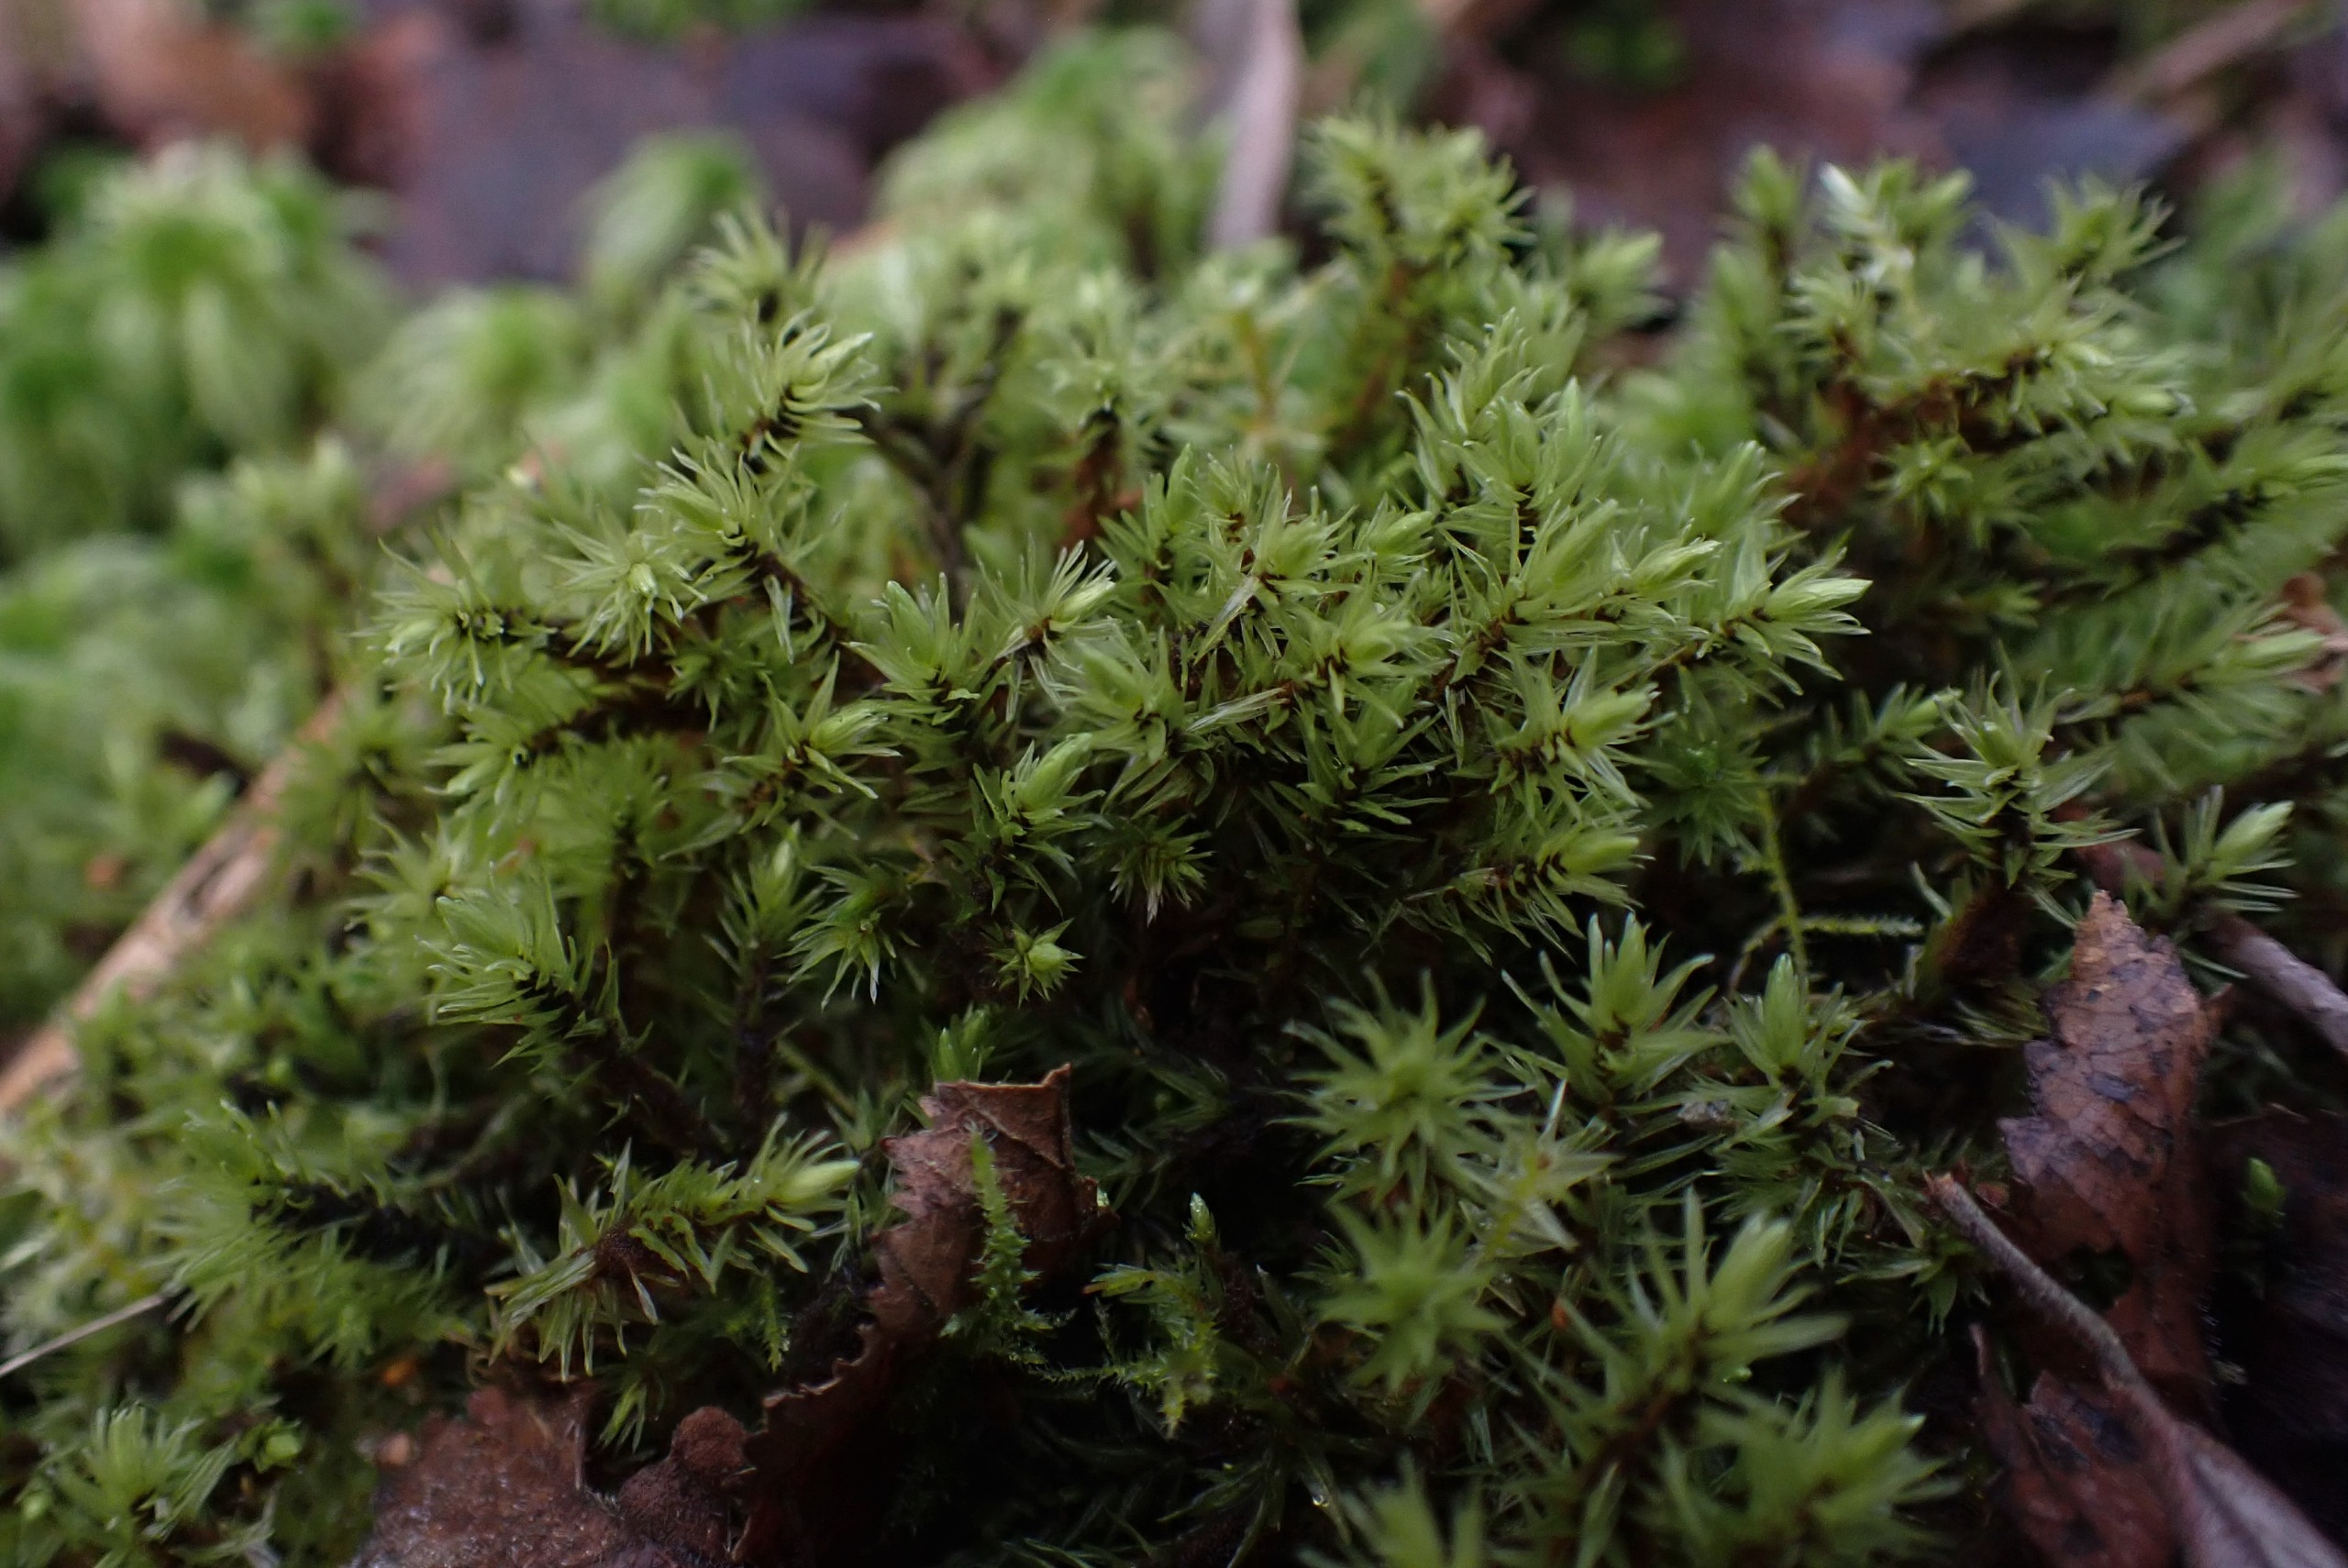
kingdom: Plantae
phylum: Bryophyta
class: Bryopsida
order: Aulacomniales
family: Aulacomniaceae
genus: Aulacomnium
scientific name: Aulacomnium palustre
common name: Almindelig filtmos
